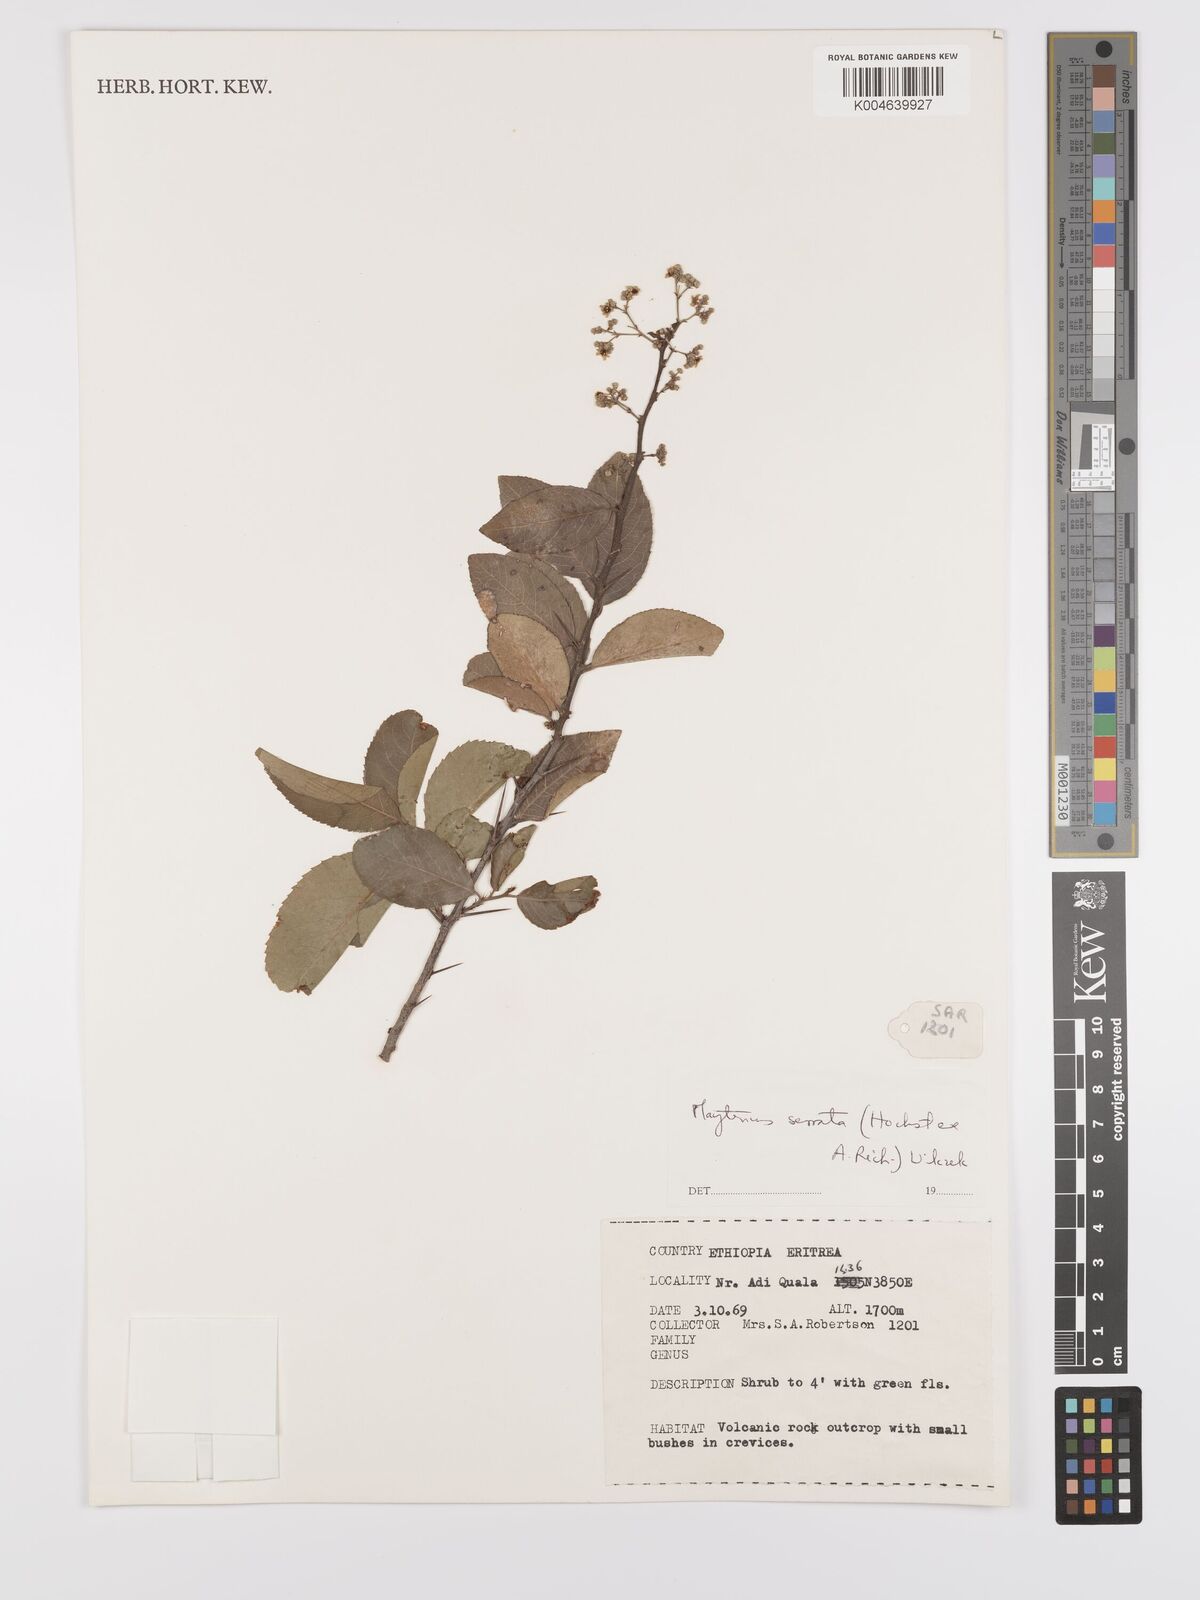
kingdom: Plantae
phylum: Tracheophyta
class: Magnoliopsida
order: Celastrales
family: Celastraceae
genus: Gymnosporia
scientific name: Gymnosporia serrata
